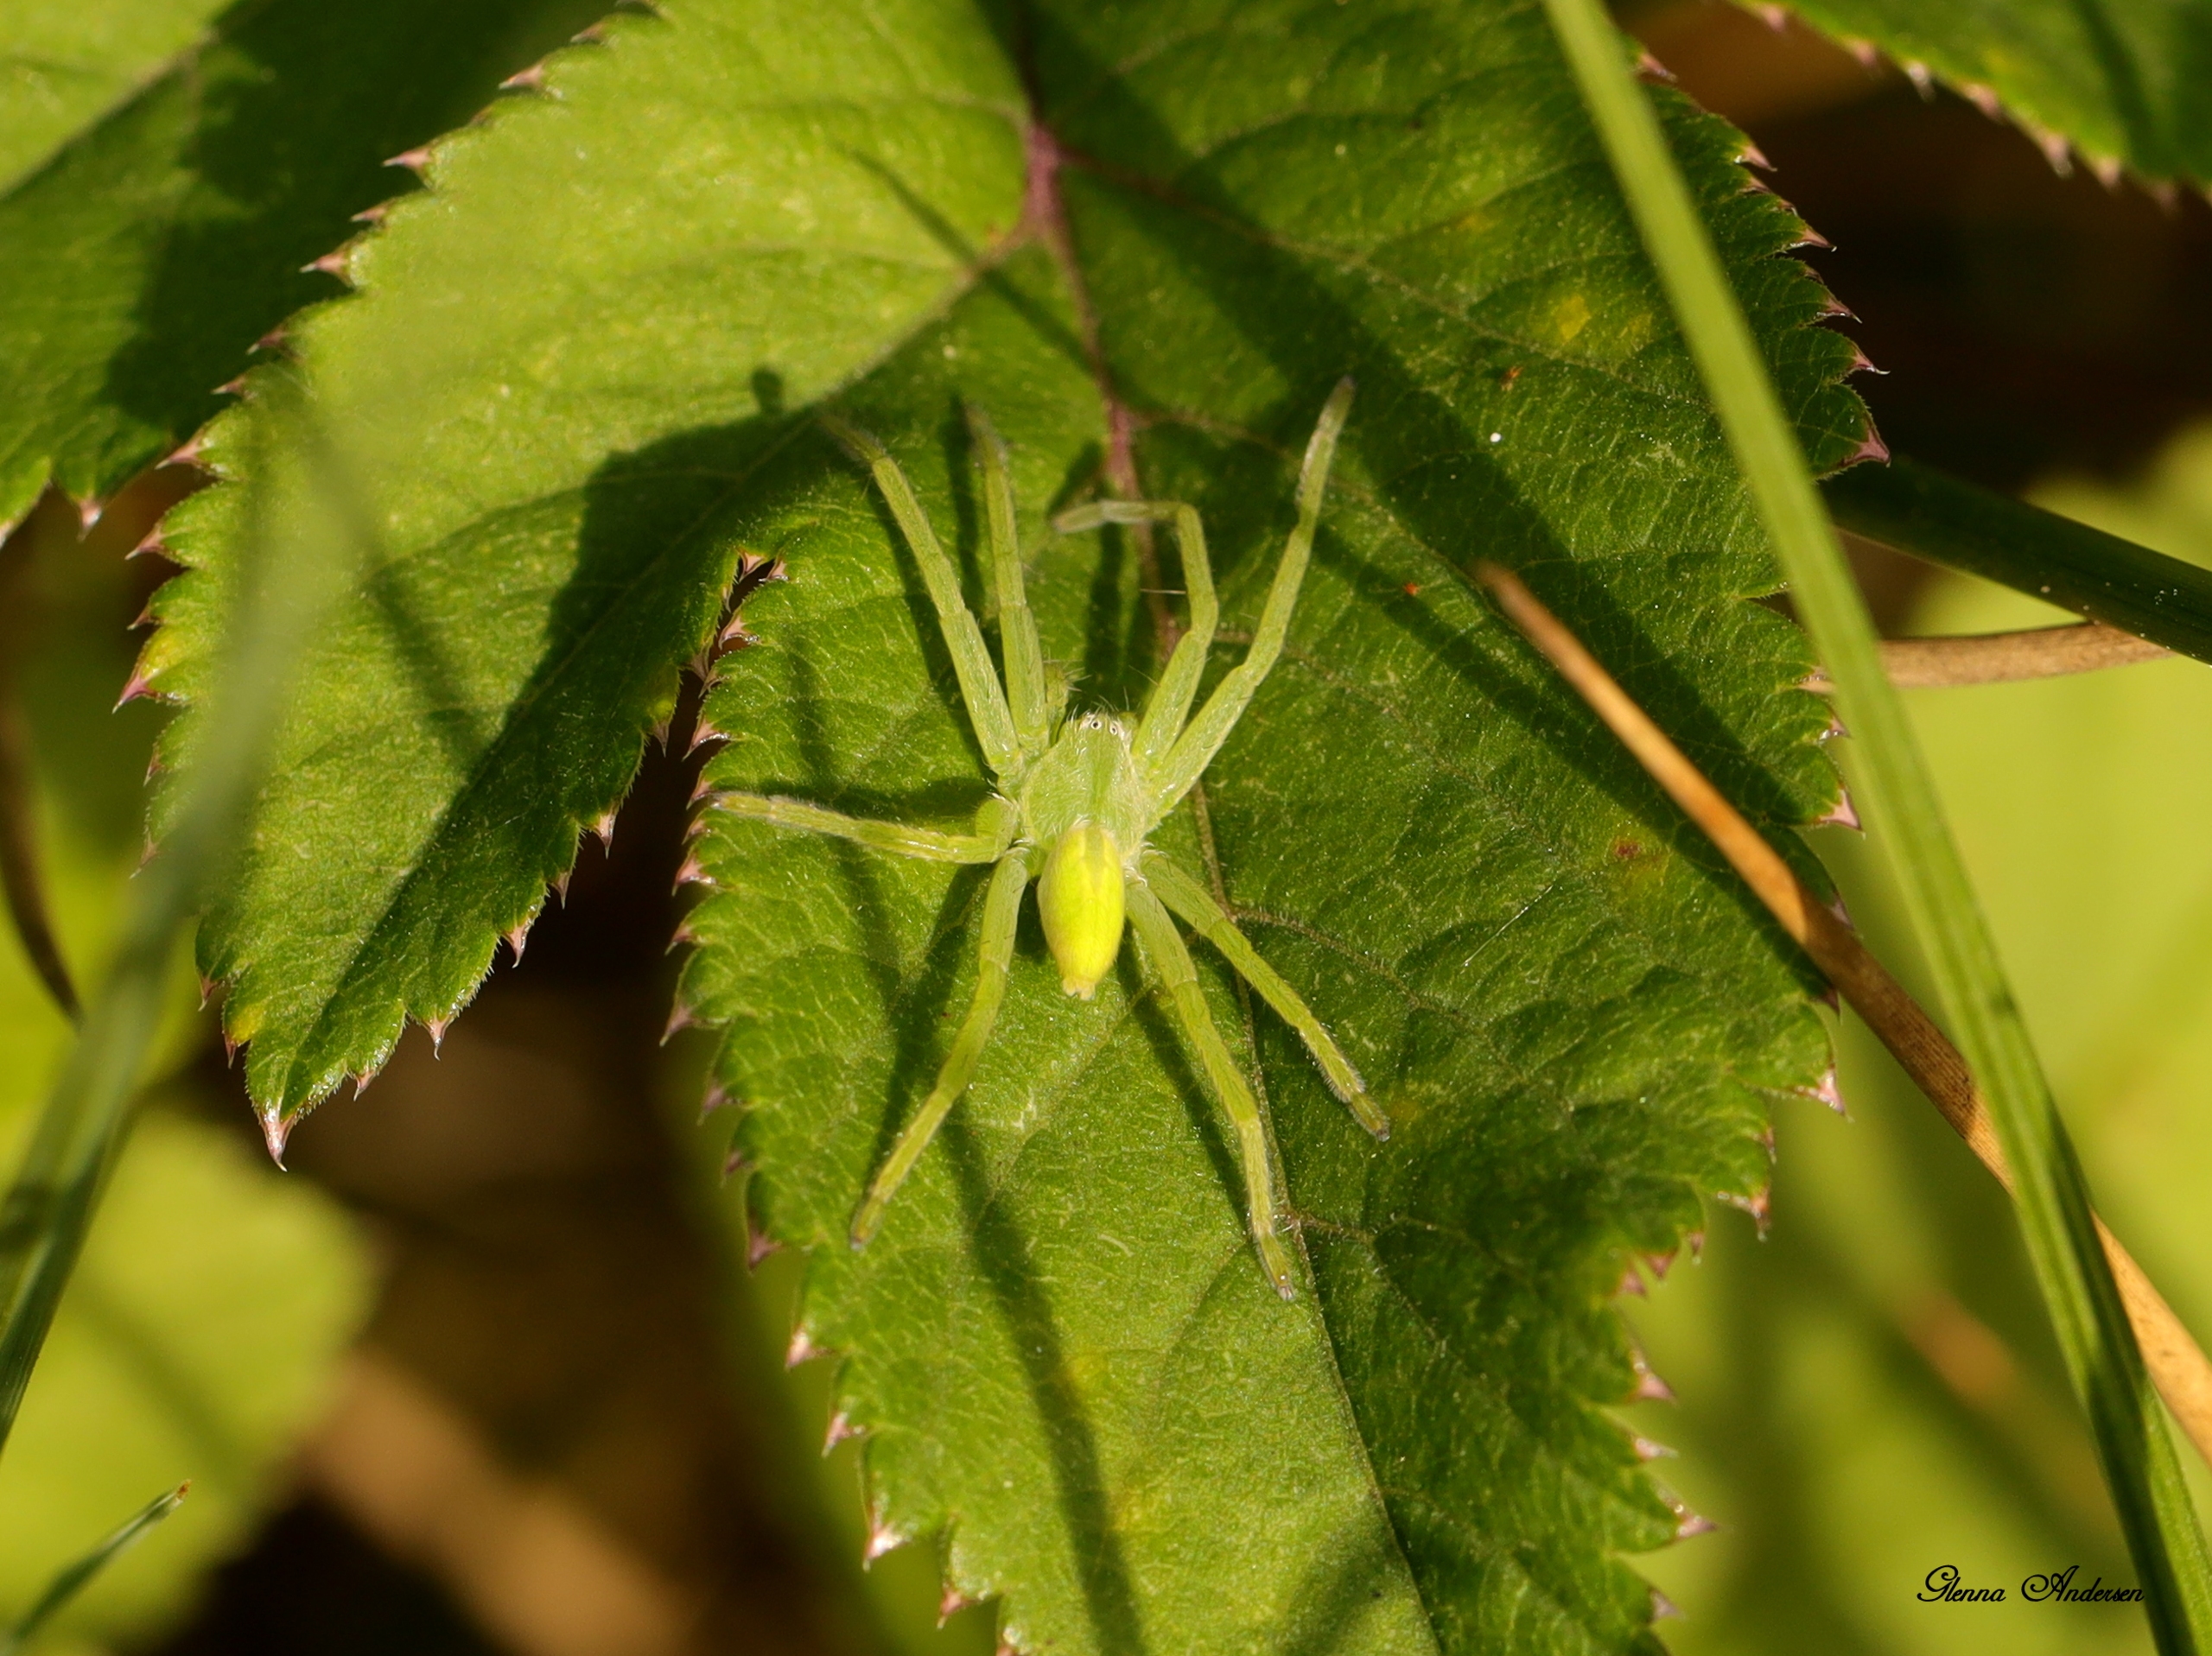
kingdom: Animalia
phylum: Arthropoda
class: Arachnida
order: Araneae
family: Sparassidae
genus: Micrommata
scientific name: Micrommata virescens
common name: Smaragdedderkop
